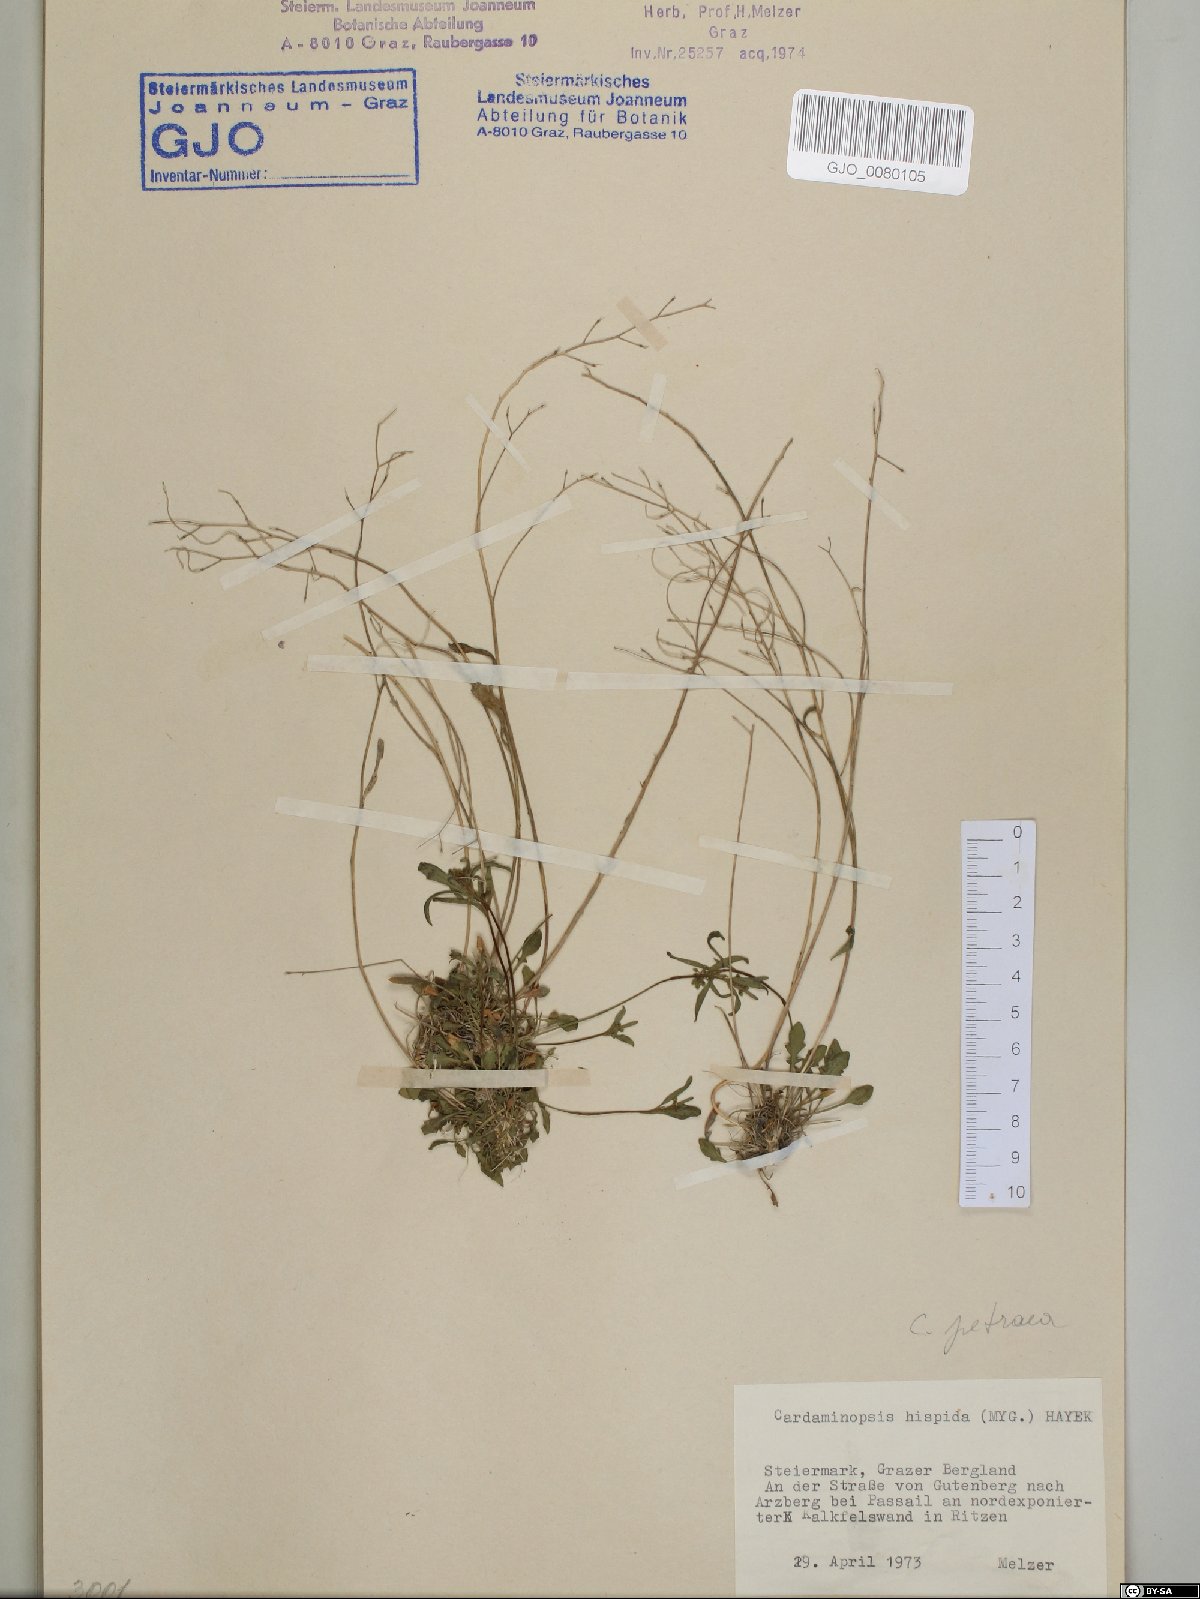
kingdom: Plantae
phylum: Tracheophyta
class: Magnoliopsida
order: Brassicales
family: Brassicaceae
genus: Arabidopsis
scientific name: Arabidopsis lyrata
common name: Lyrate rockcress
